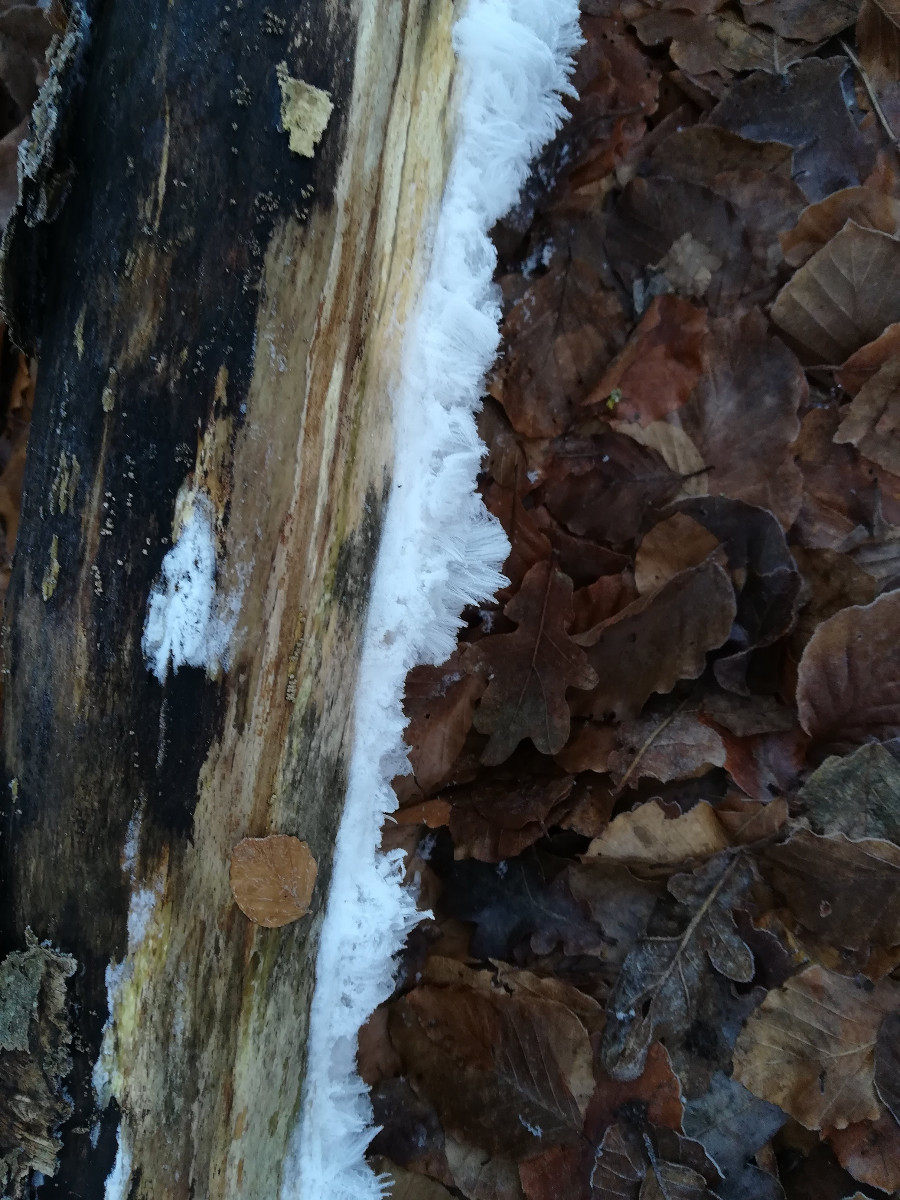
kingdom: Fungi
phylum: Basidiomycota
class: Tremellomycetes
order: Tremellales
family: Exidiaceae
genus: Exidiopsis
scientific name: Exidiopsis effusa
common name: smuk bævrehinde
